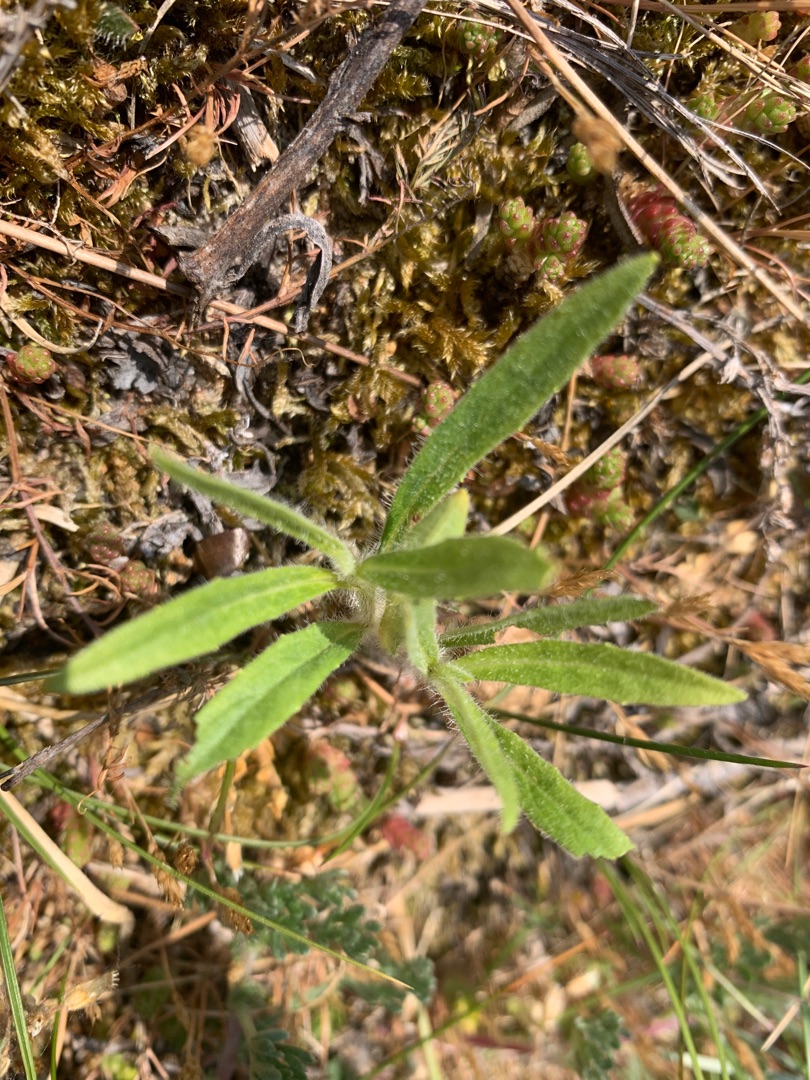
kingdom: Plantae
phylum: Tracheophyta
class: Magnoliopsida
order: Asterales
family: Asteraceae
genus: Hieracium
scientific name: Hieracium umbellatum
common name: Smalbladet høgeurt
